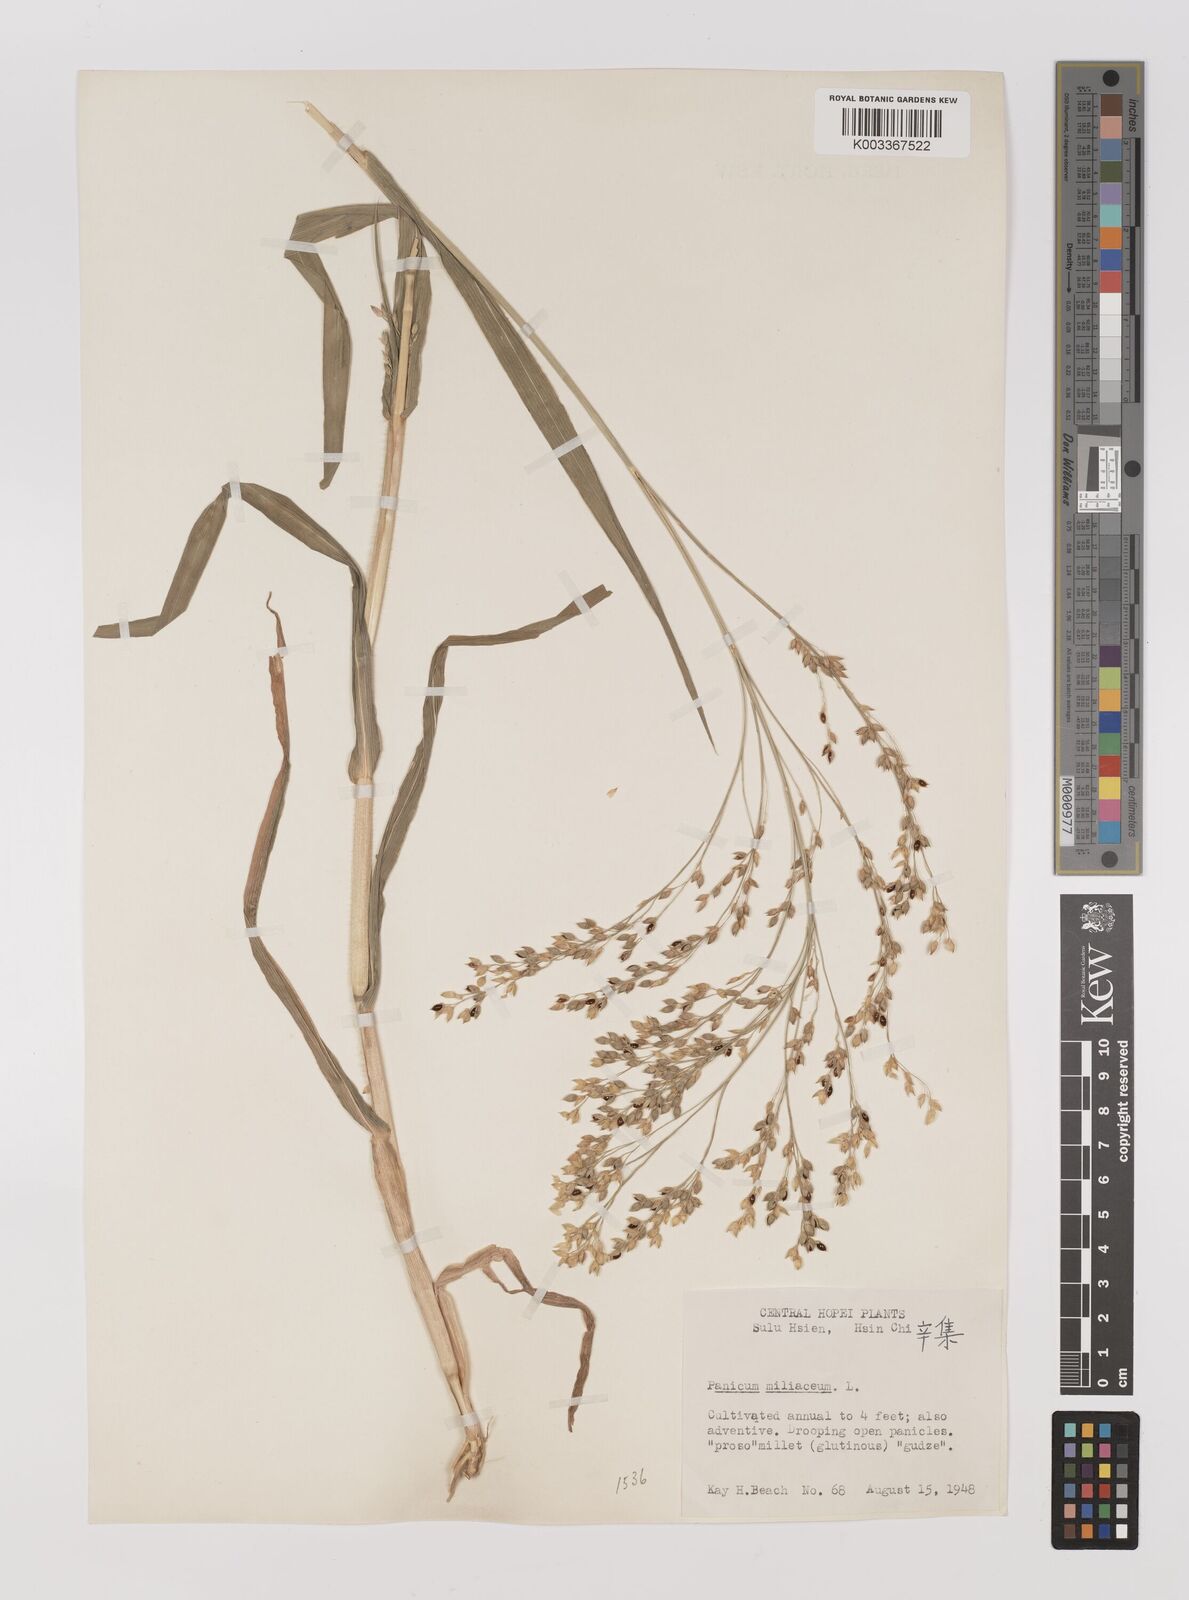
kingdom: Plantae
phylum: Tracheophyta
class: Liliopsida
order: Poales
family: Poaceae
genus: Panicum
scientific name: Panicum miliaceum
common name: Common millet
